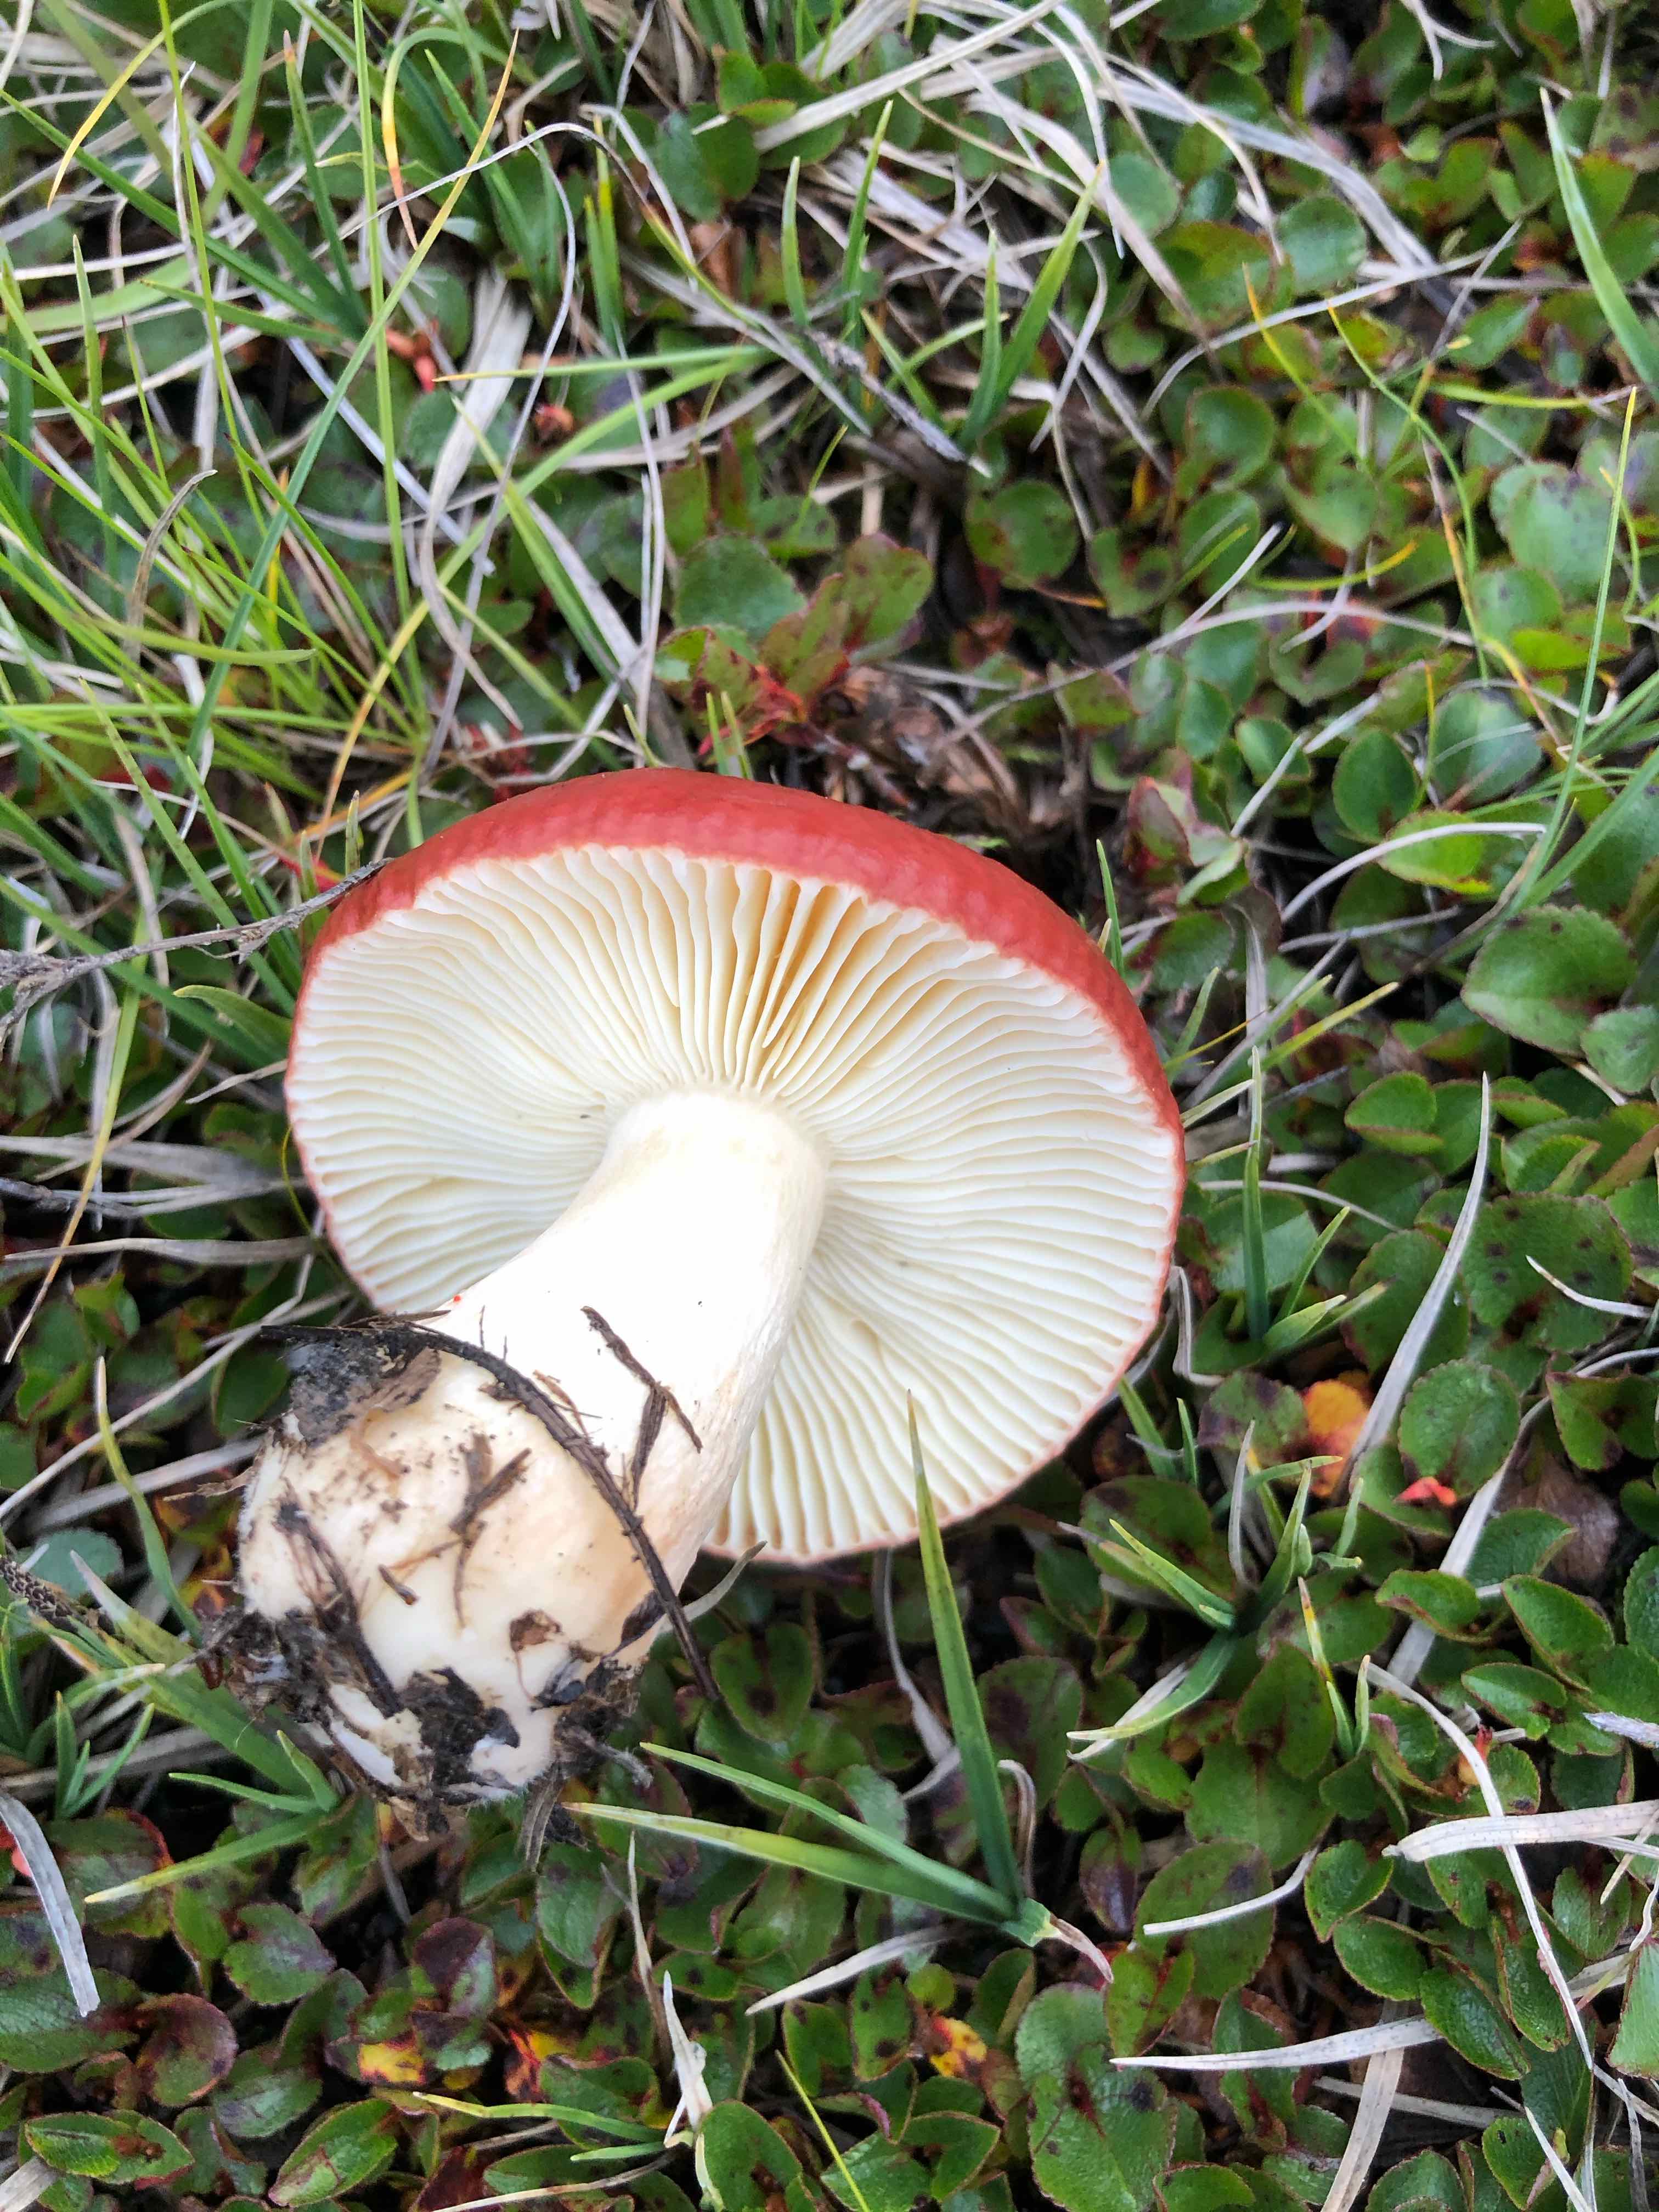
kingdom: Fungi
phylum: Basidiomycota
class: Agaricomycetes
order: Russulales
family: Russulaceae
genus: Russula
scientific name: Russula subrubens
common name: pile-skørhat
